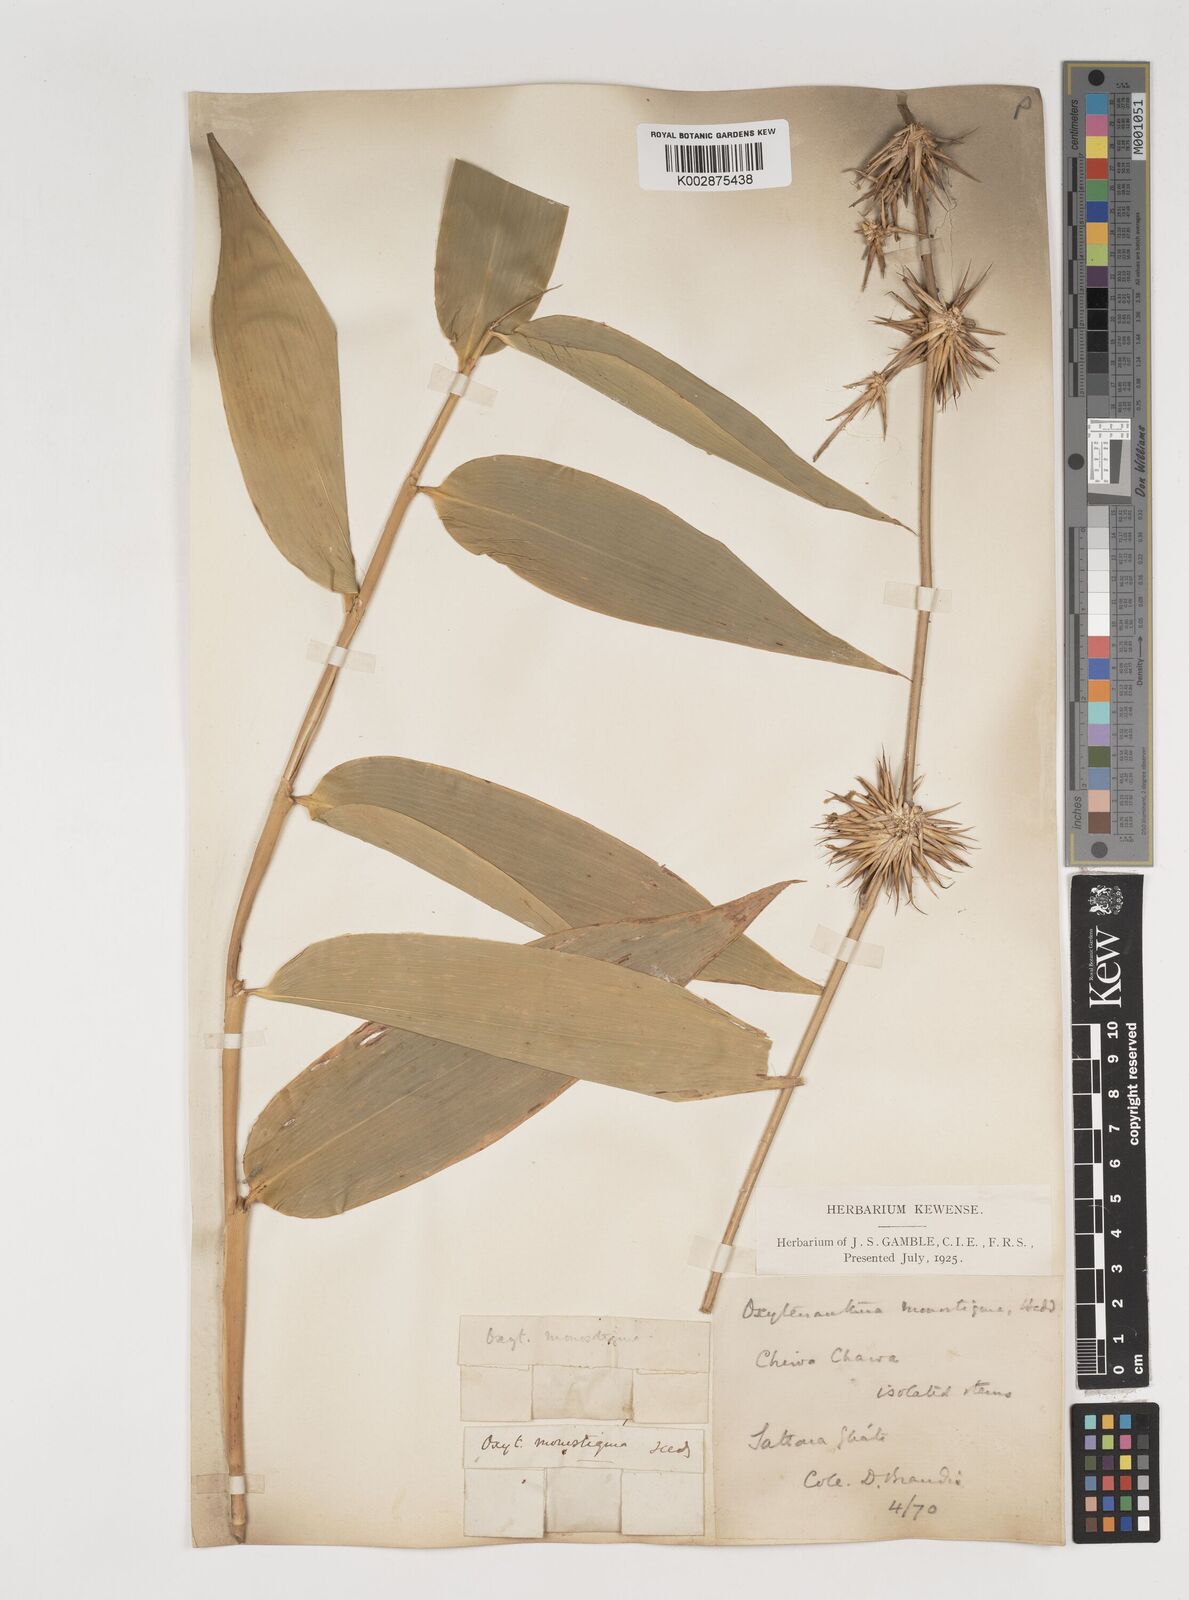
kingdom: Plantae
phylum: Tracheophyta
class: Liliopsida
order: Poales
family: Poaceae
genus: Dendrocalamus
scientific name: Dendrocalamus
